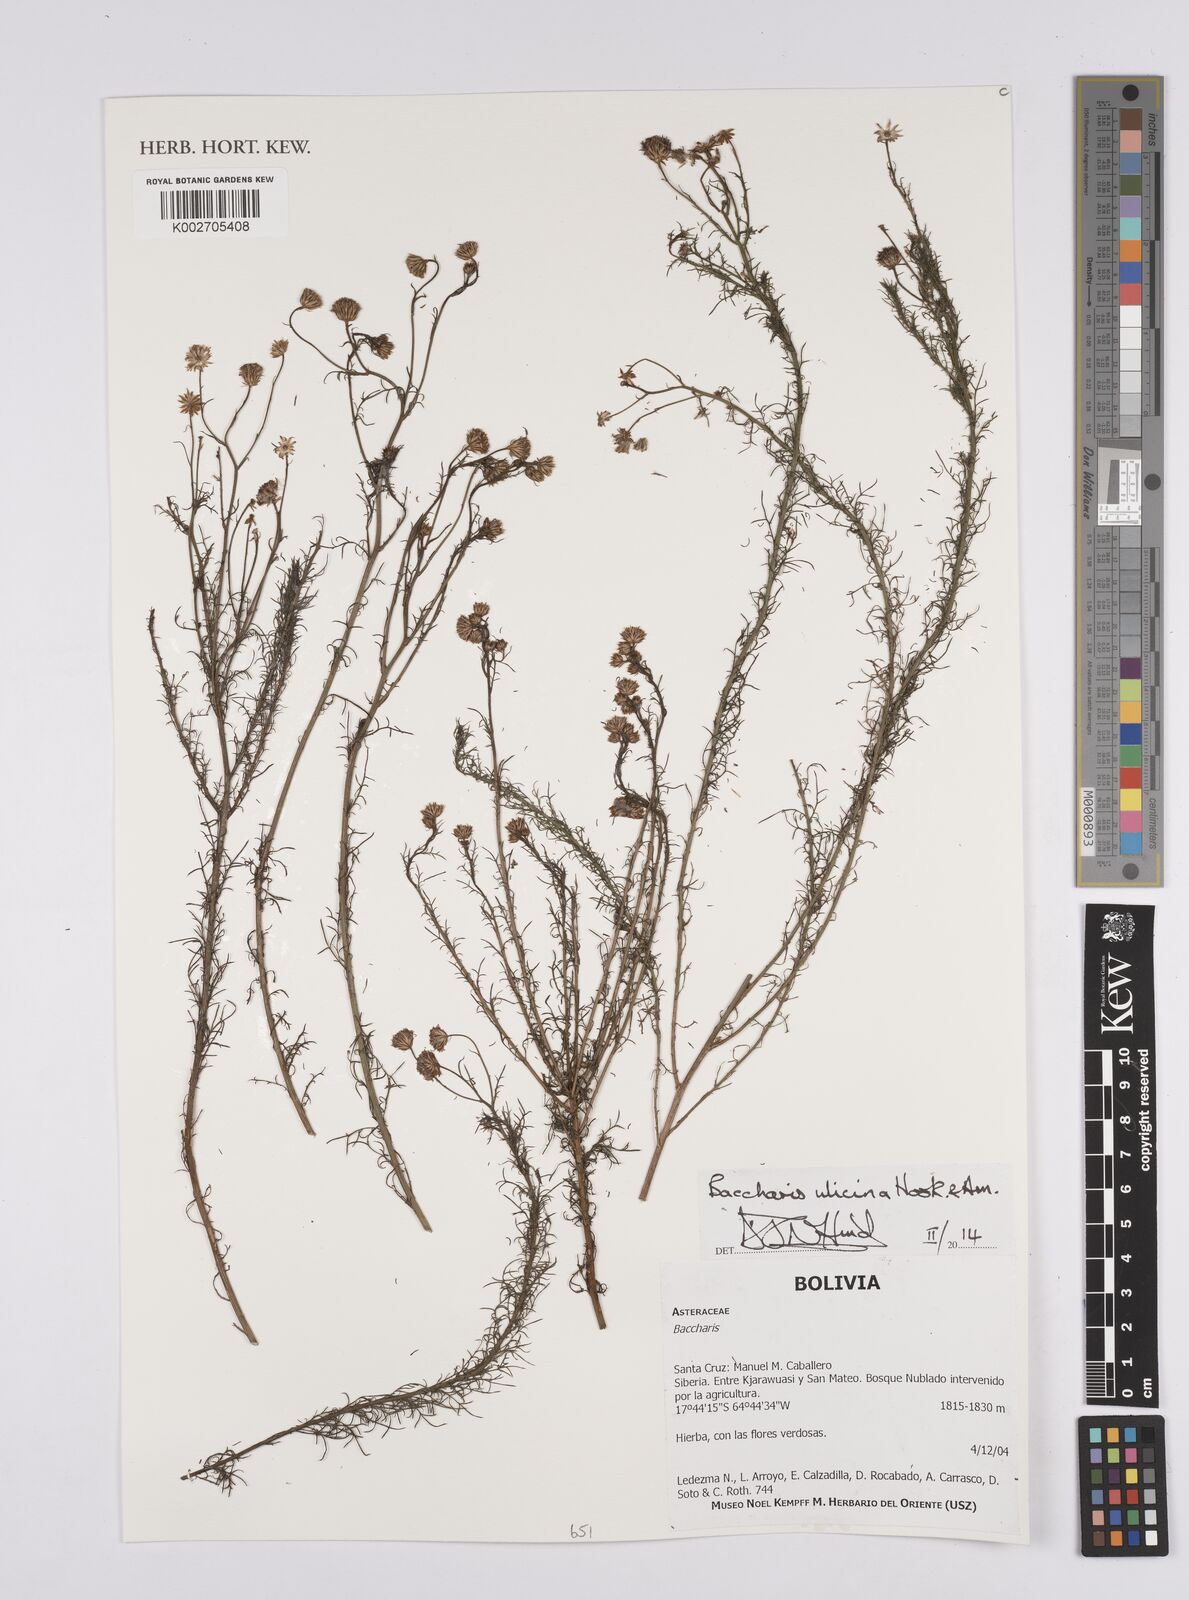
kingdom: Plantae
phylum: Tracheophyta
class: Magnoliopsida
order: Asterales
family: Asteraceae
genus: Baccharis
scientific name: Baccharis ulicina
